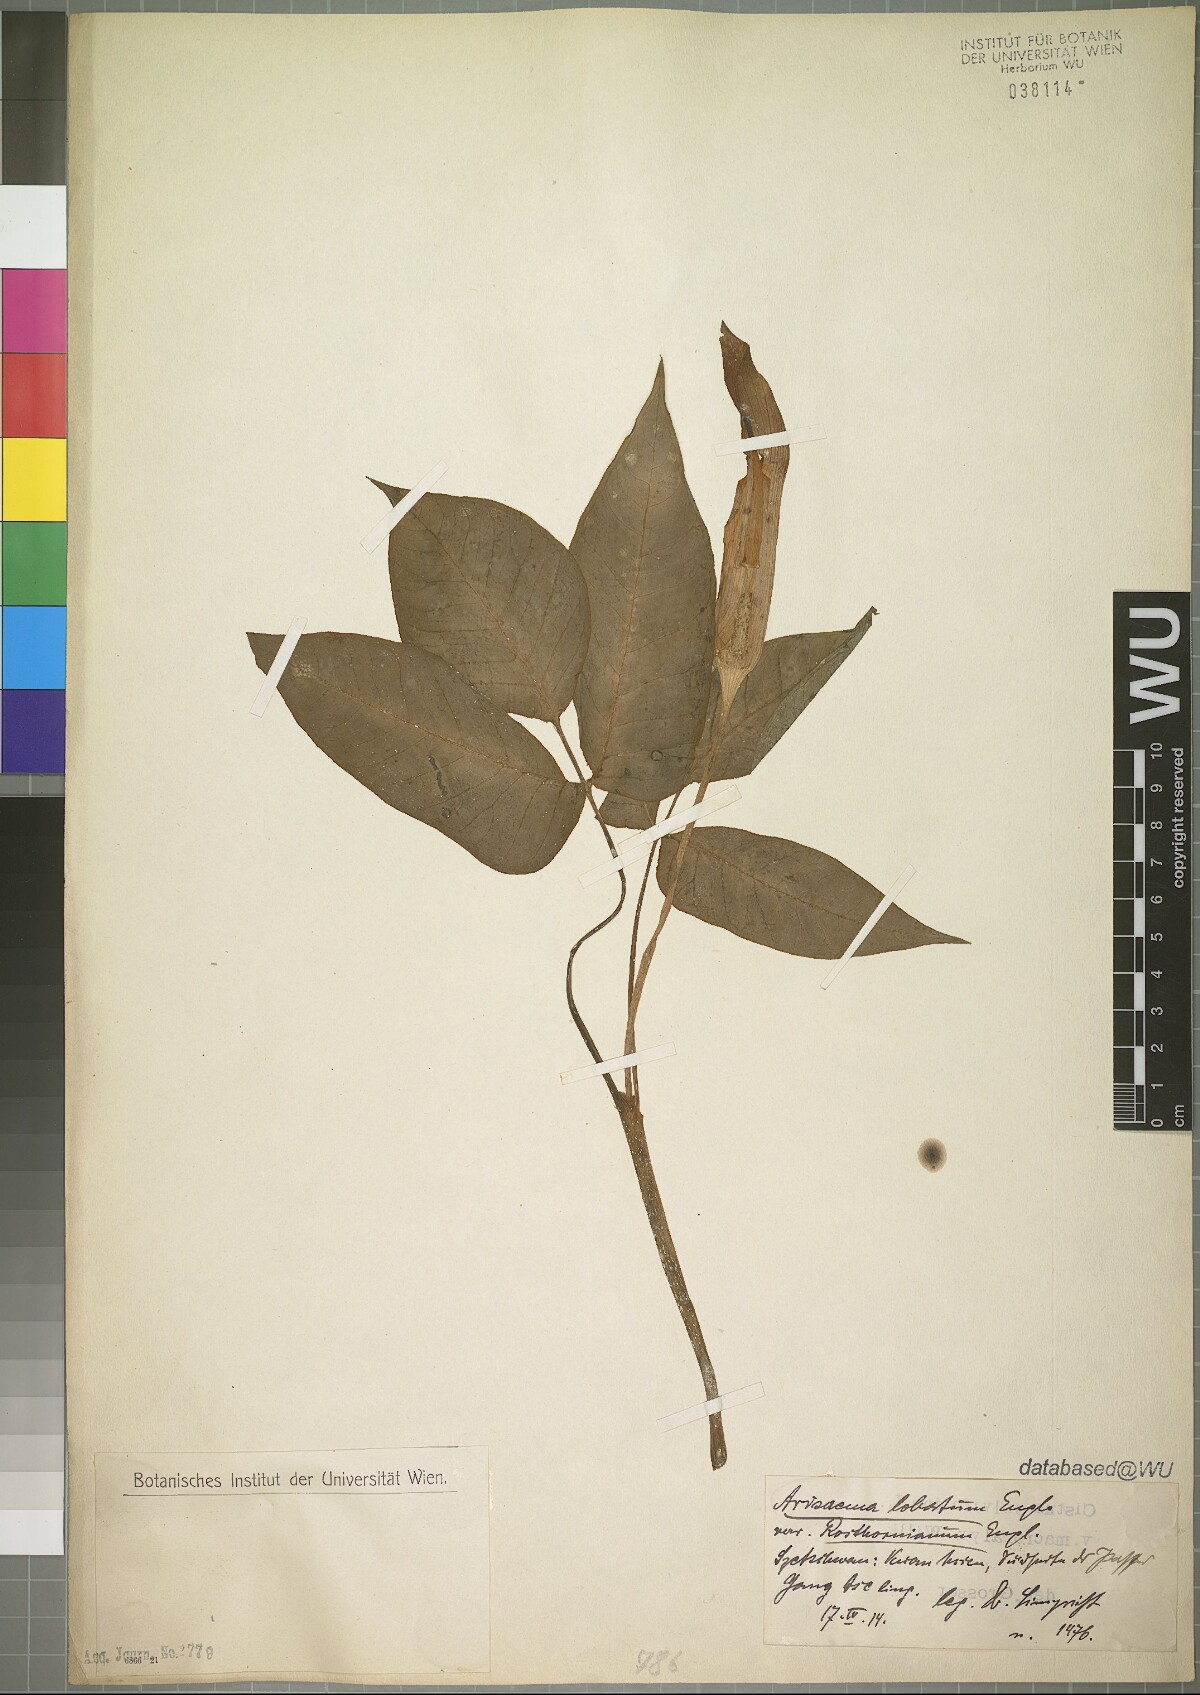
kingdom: Plantae
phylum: Tracheophyta
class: Liliopsida
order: Alismatales
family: Araceae
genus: Arisaema
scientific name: Arisaema lobatum
